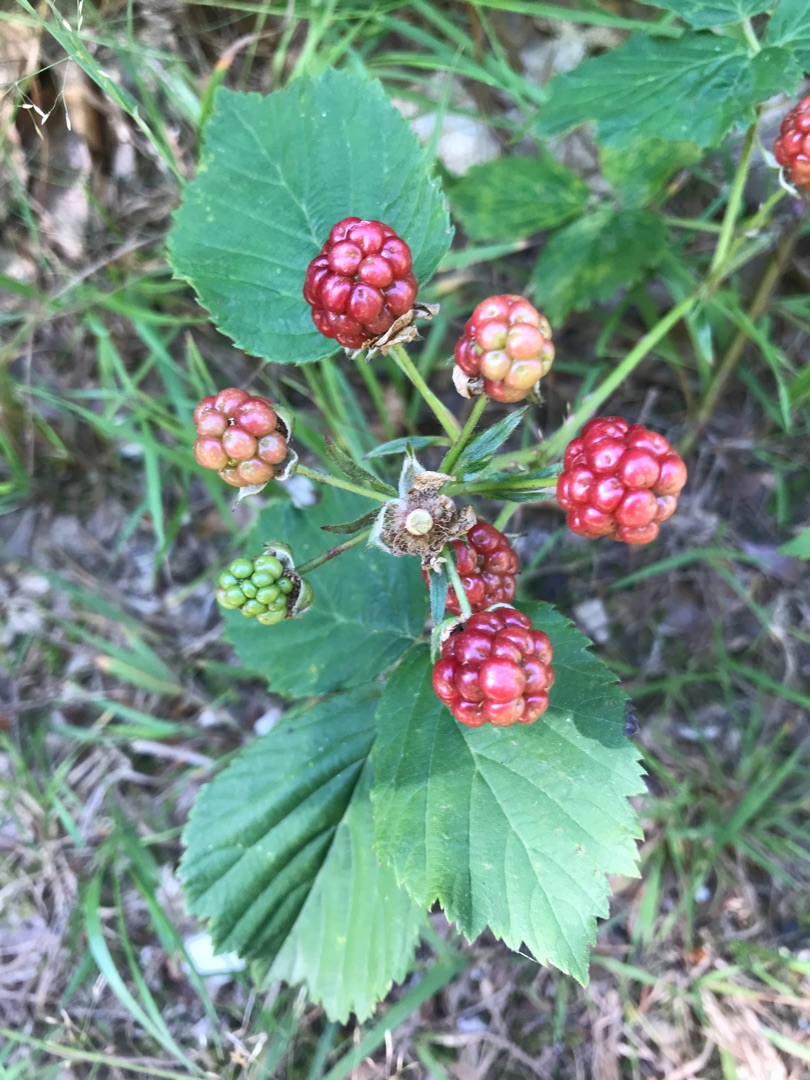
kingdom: Plantae
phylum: Tracheophyta
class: Magnoliopsida
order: Rosales
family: Rosaceae
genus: Rubus
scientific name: Rubus
